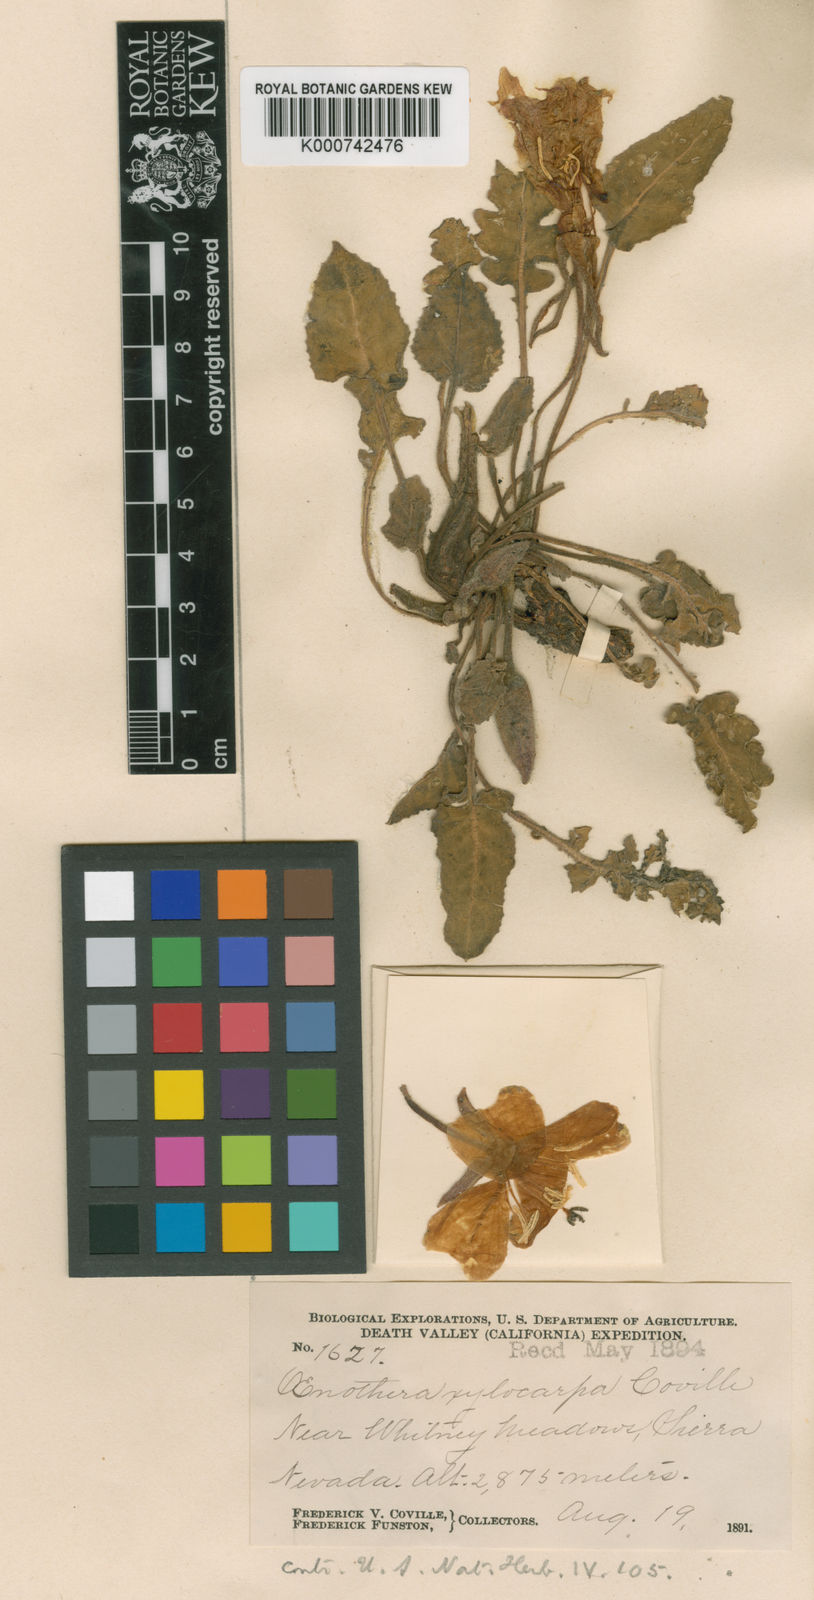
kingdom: Plantae
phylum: Tracheophyta
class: Magnoliopsida
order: Myrtales
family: Onagraceae
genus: Oenothera
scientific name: Oenothera xylocarpa
